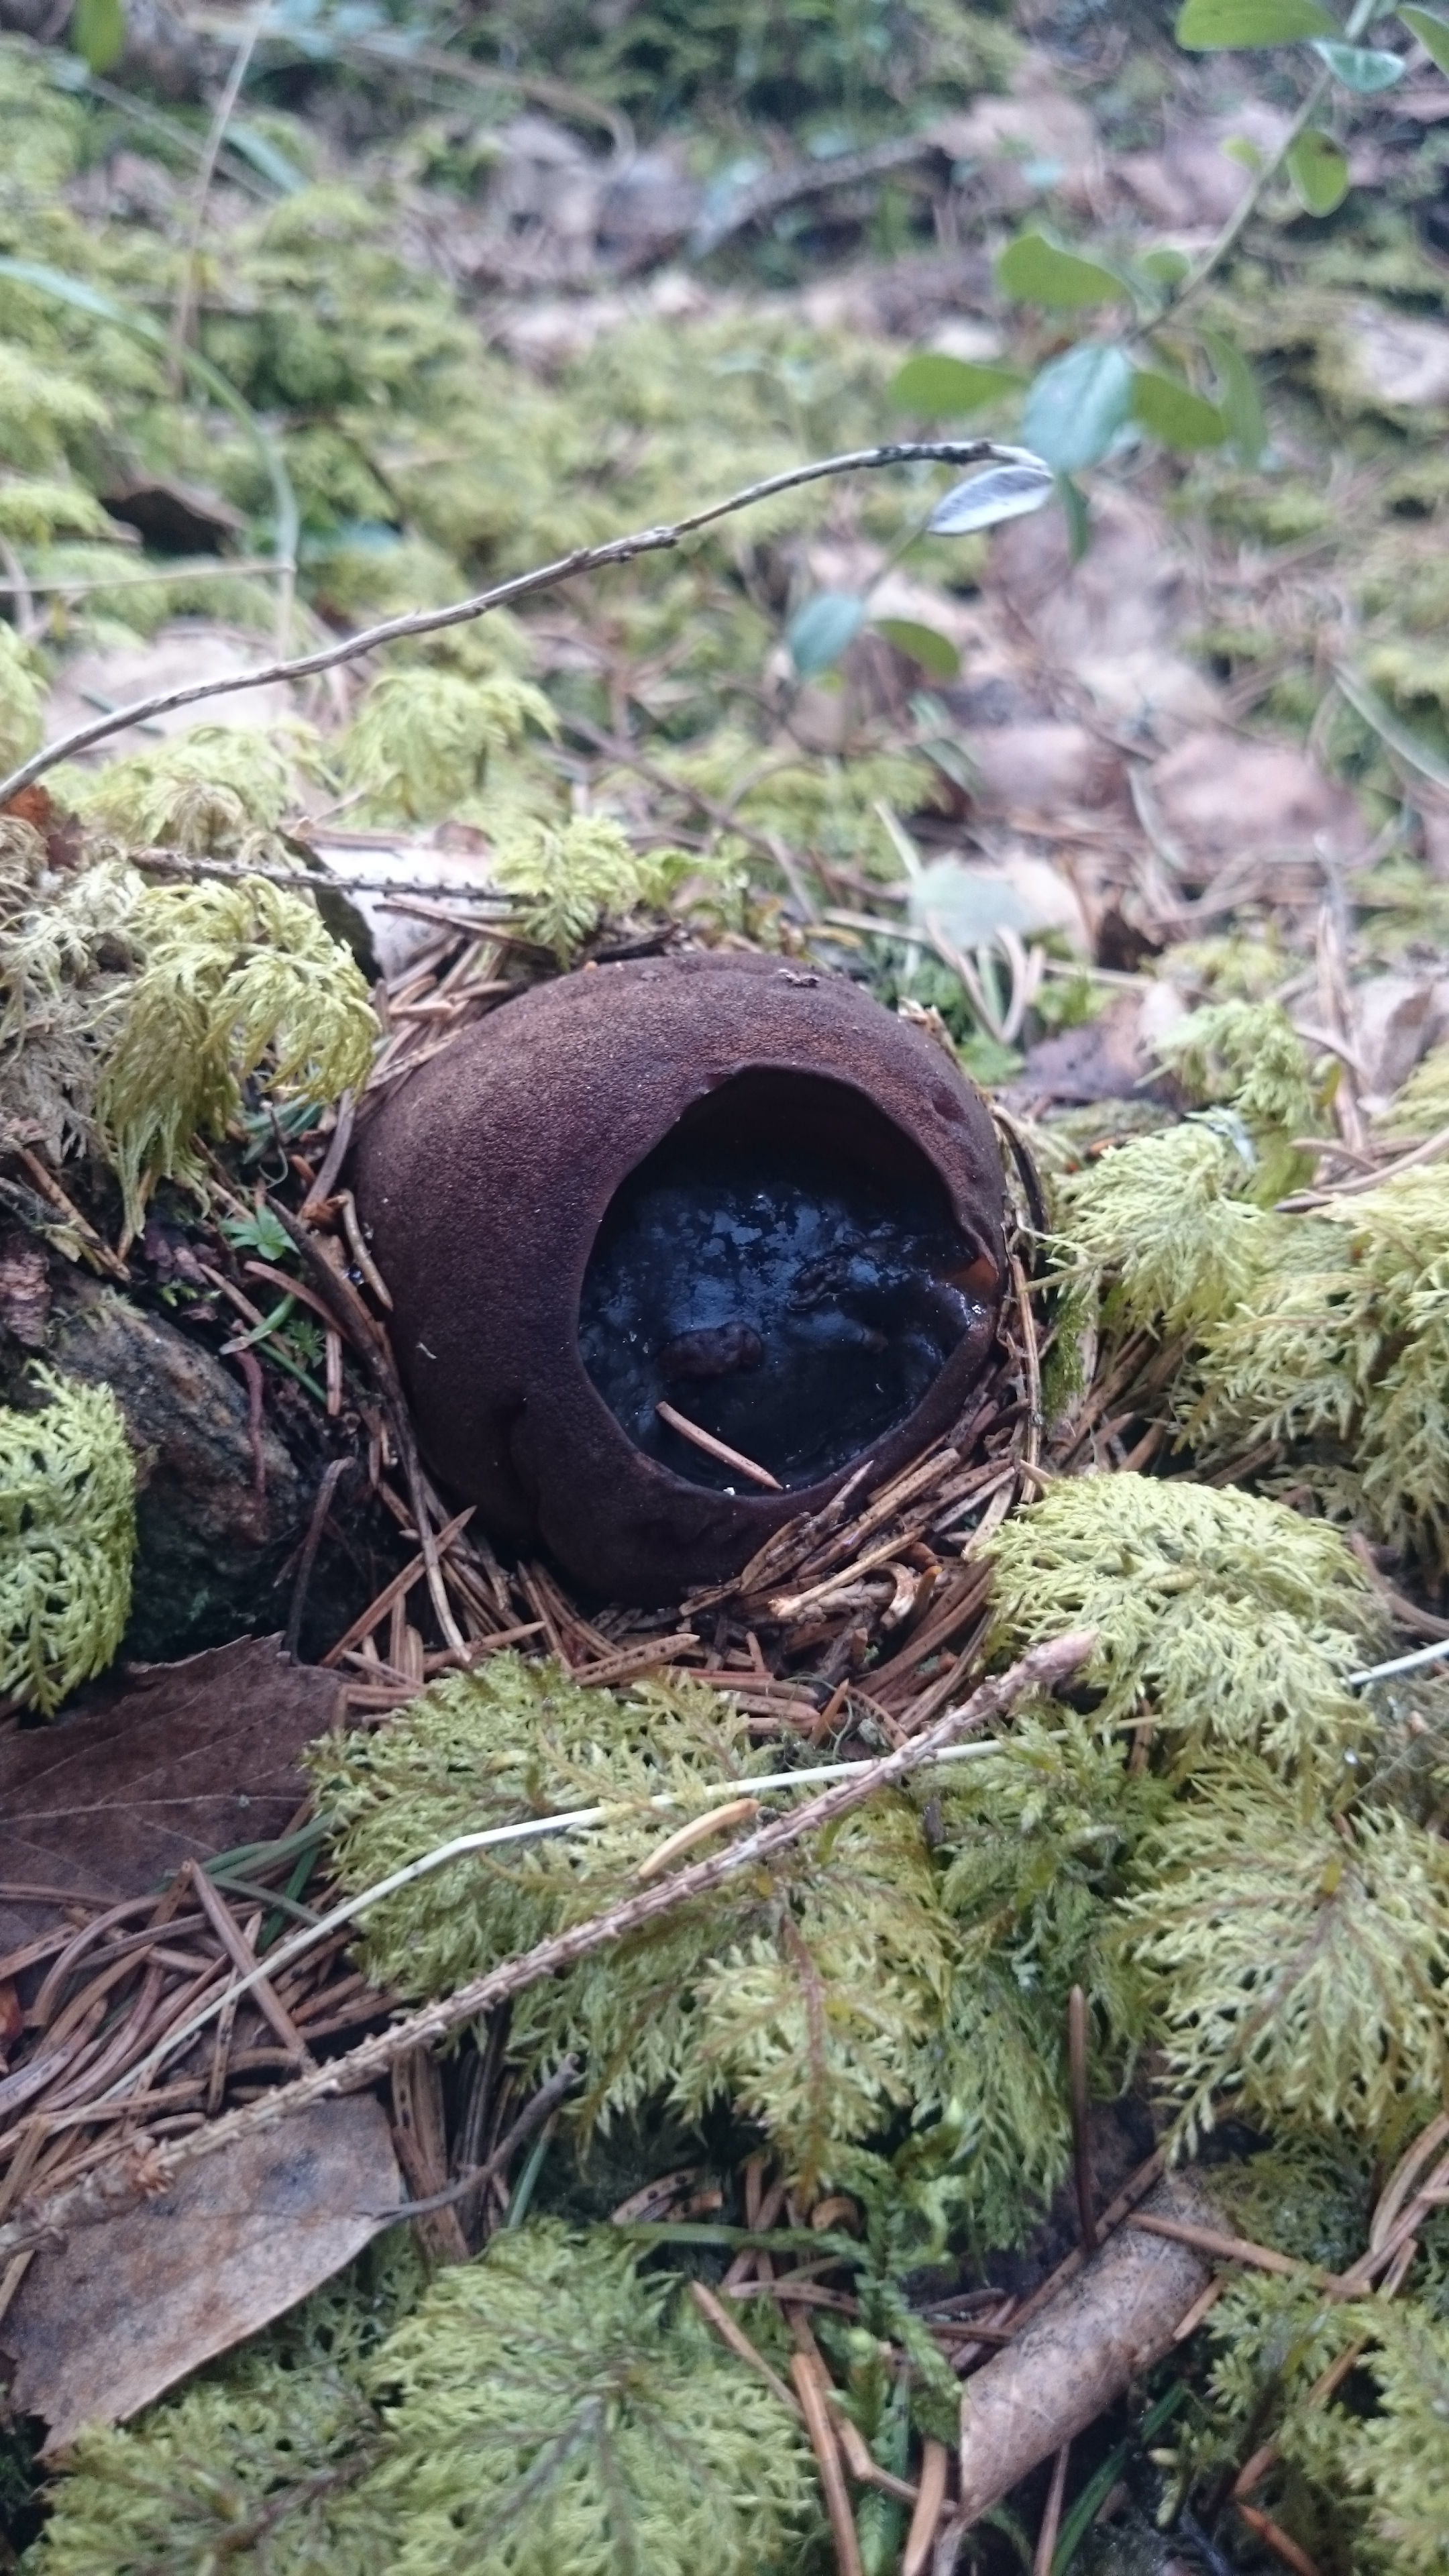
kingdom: Fungi
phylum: Ascomycota
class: Pezizomycetes
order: Pezizales
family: Sarcosomataceae
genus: Sarcosoma
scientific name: Sarcosoma globosum
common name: Charred-pancake cup
